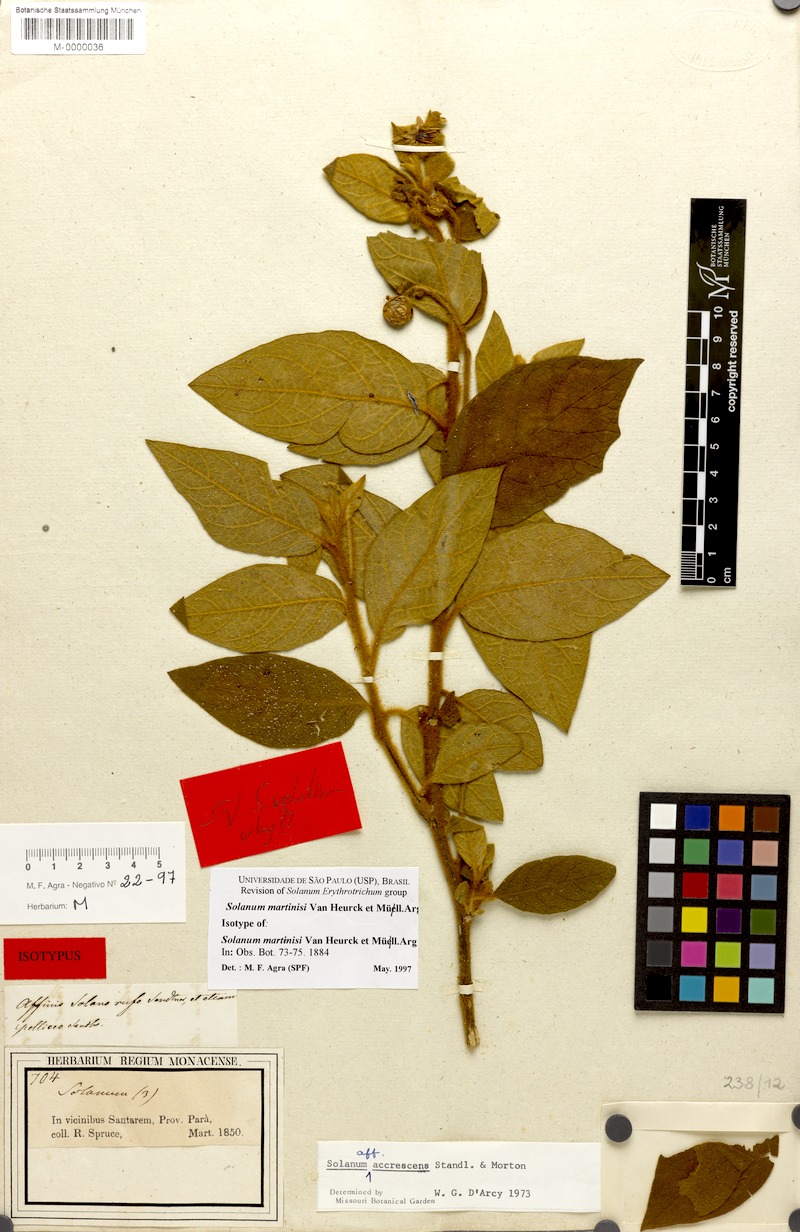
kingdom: Plantae
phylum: Tracheophyta
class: Magnoliopsida
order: Solanales
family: Solanaceae
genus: Solanum
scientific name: Solanum velutinum
